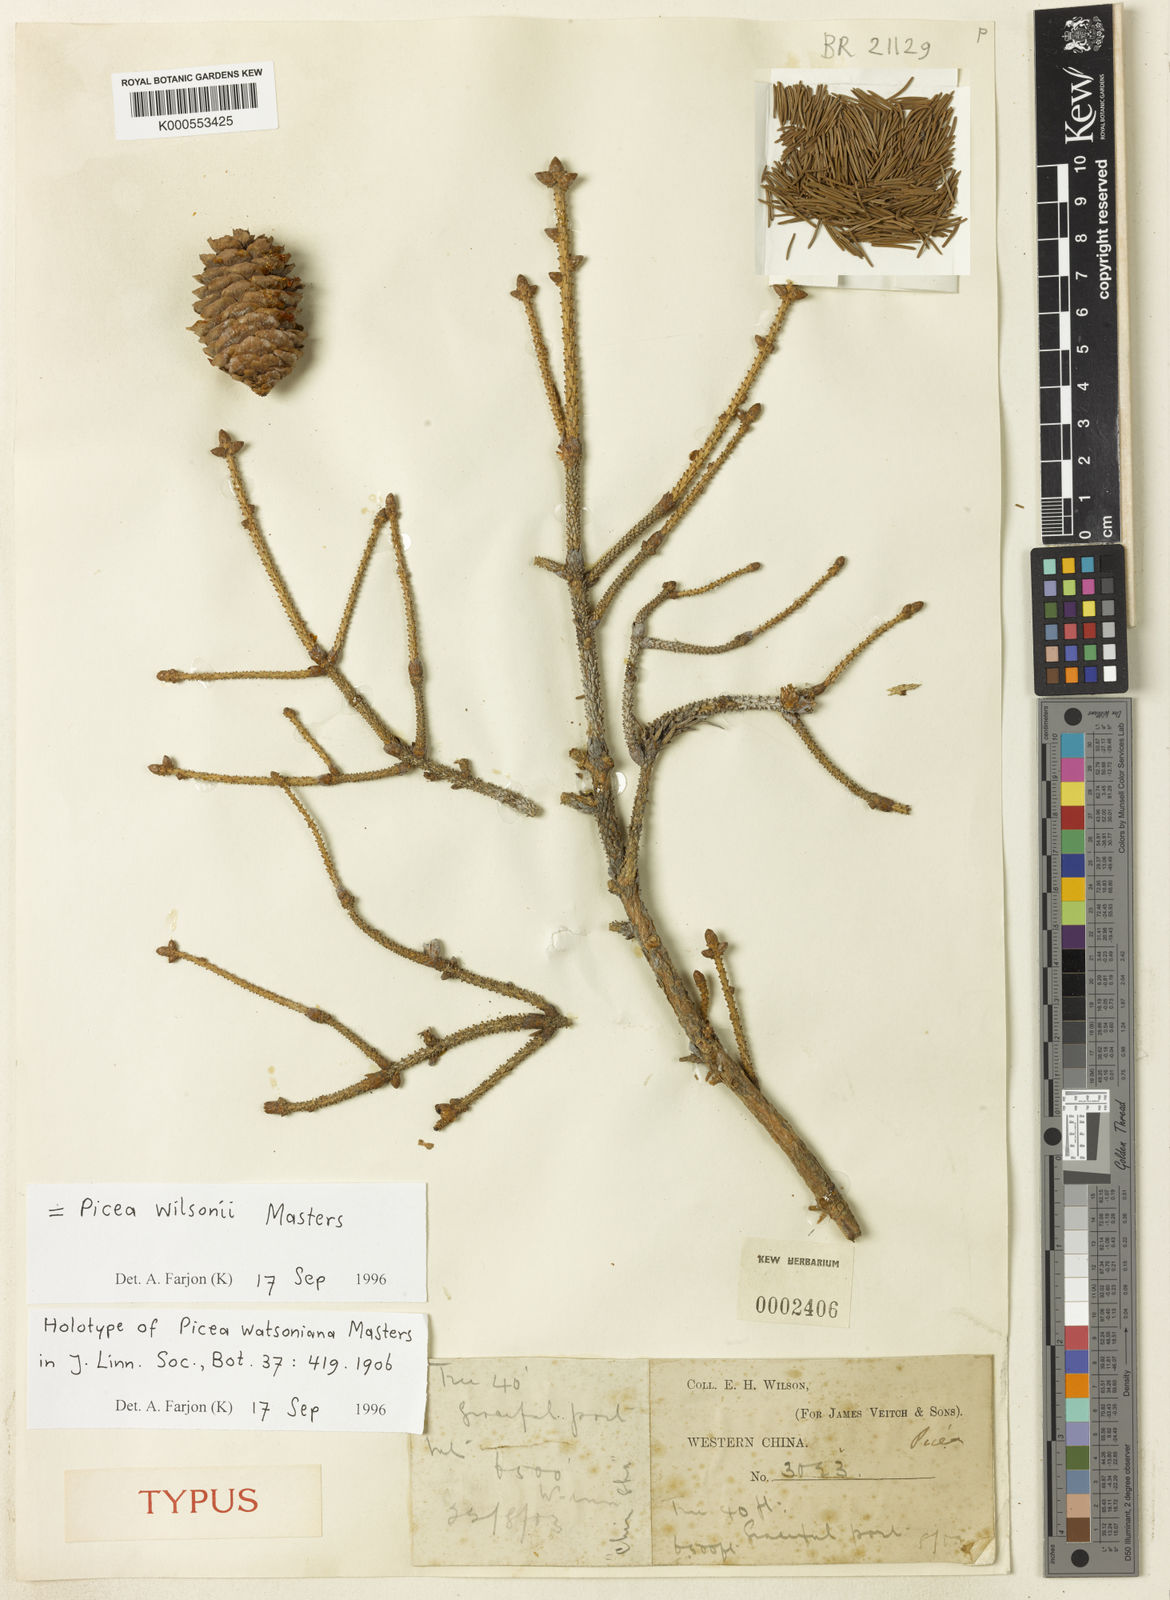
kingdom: Plantae
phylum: Tracheophyta
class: Pinopsida
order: Pinales
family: Pinaceae
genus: Picea
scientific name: Picea wilsonii
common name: Wilson spruce
